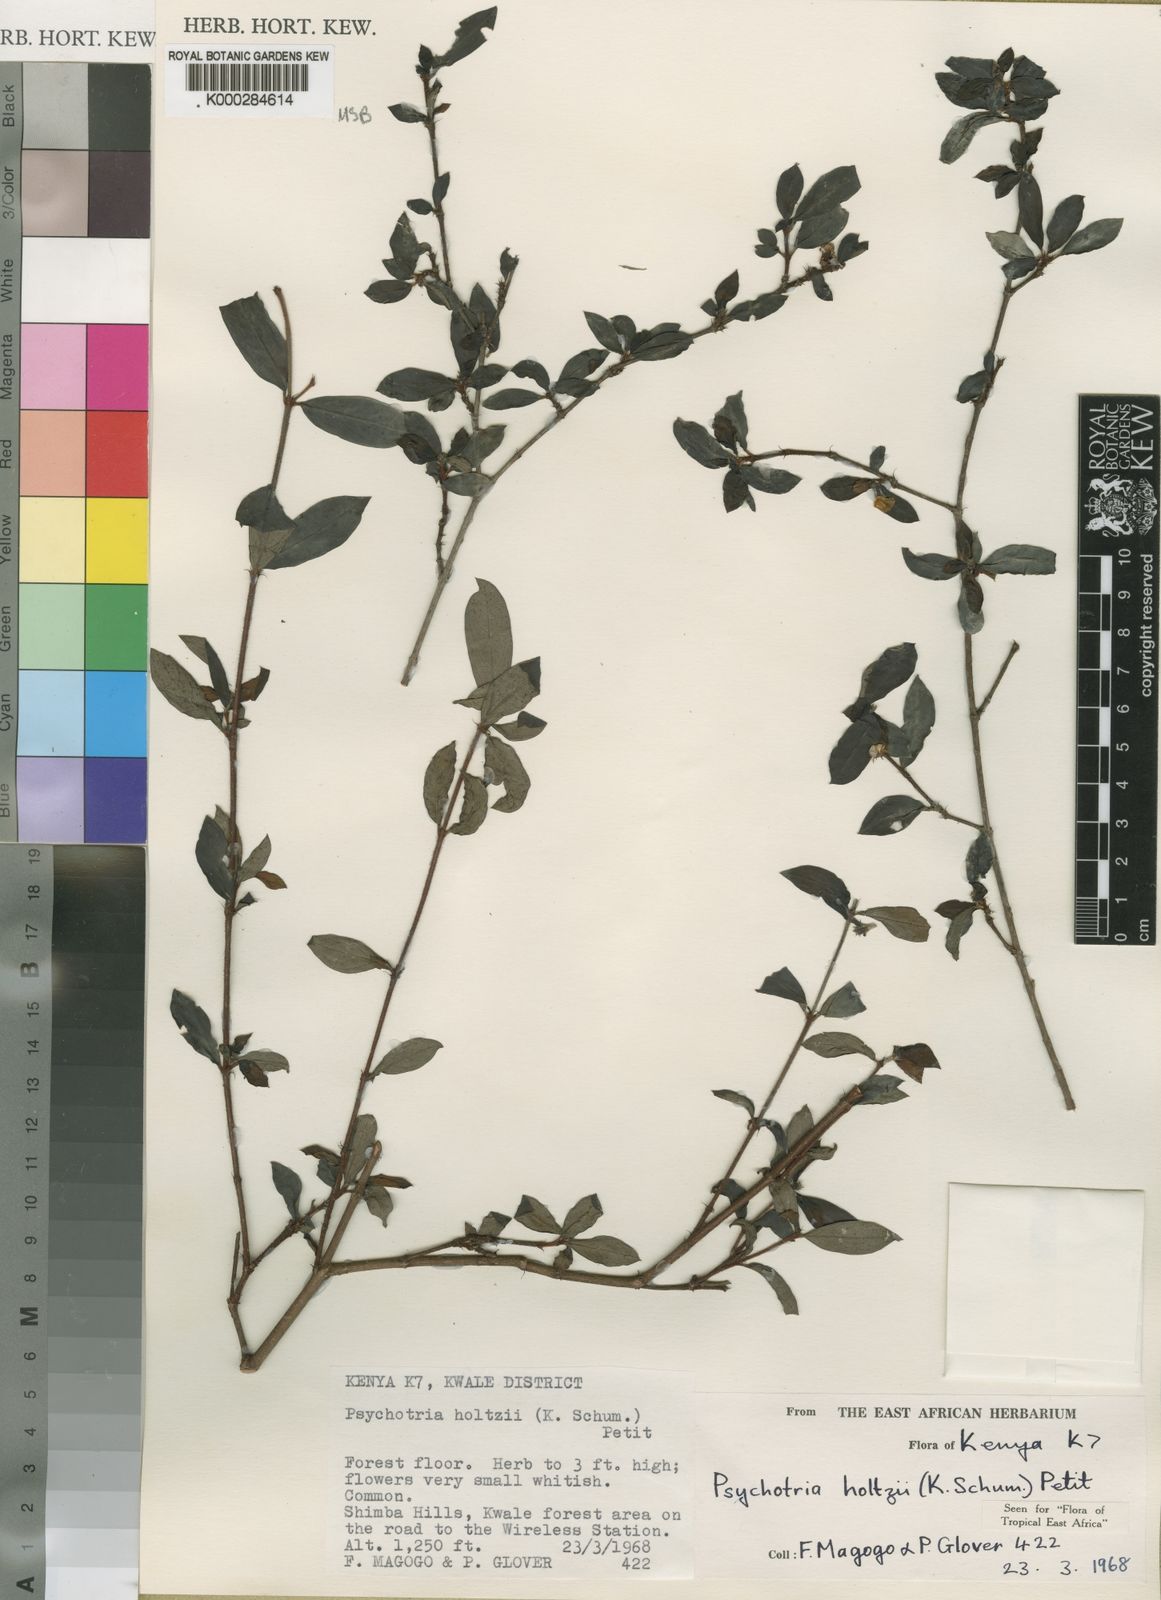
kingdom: Plantae
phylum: Tracheophyta
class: Magnoliopsida
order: Gentianales
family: Rubiaceae
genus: Psychotria
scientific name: Psychotria holtzii
